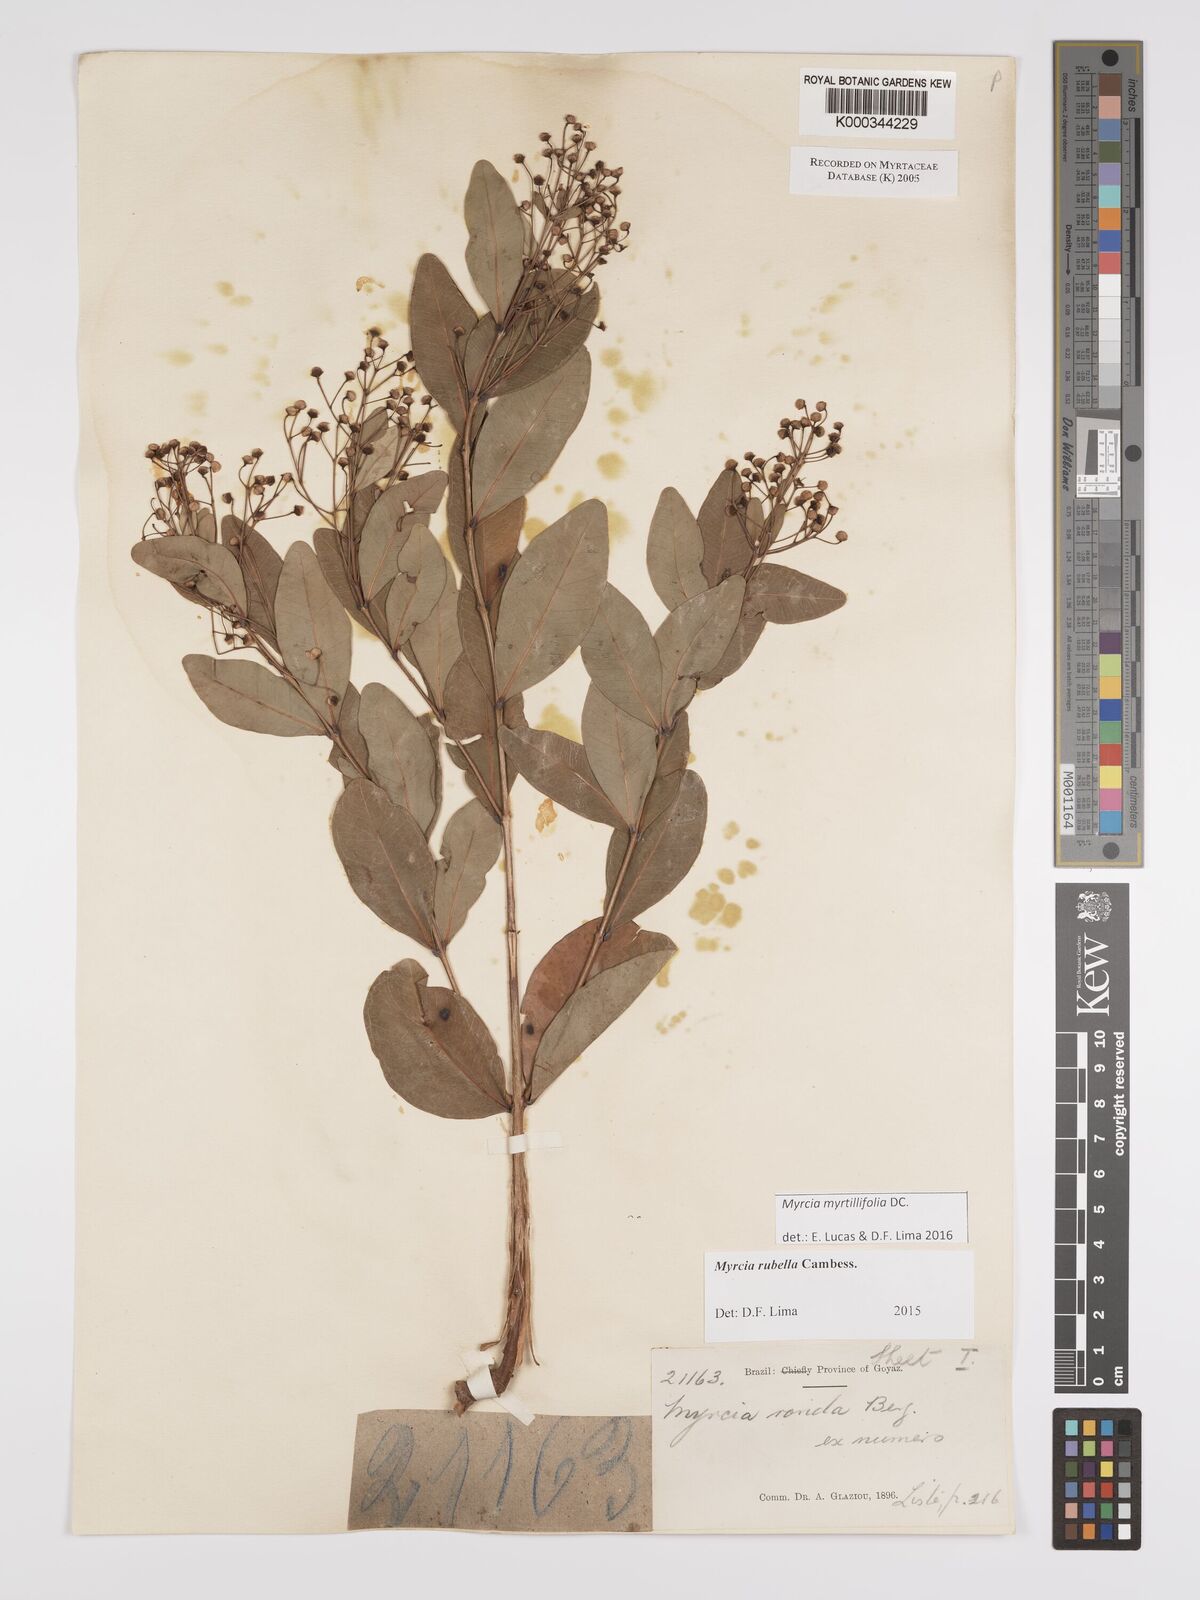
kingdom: Plantae
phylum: Tracheophyta
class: Magnoliopsida
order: Myrtales
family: Myrtaceae
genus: Myrcia
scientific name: Myrcia guianensis
